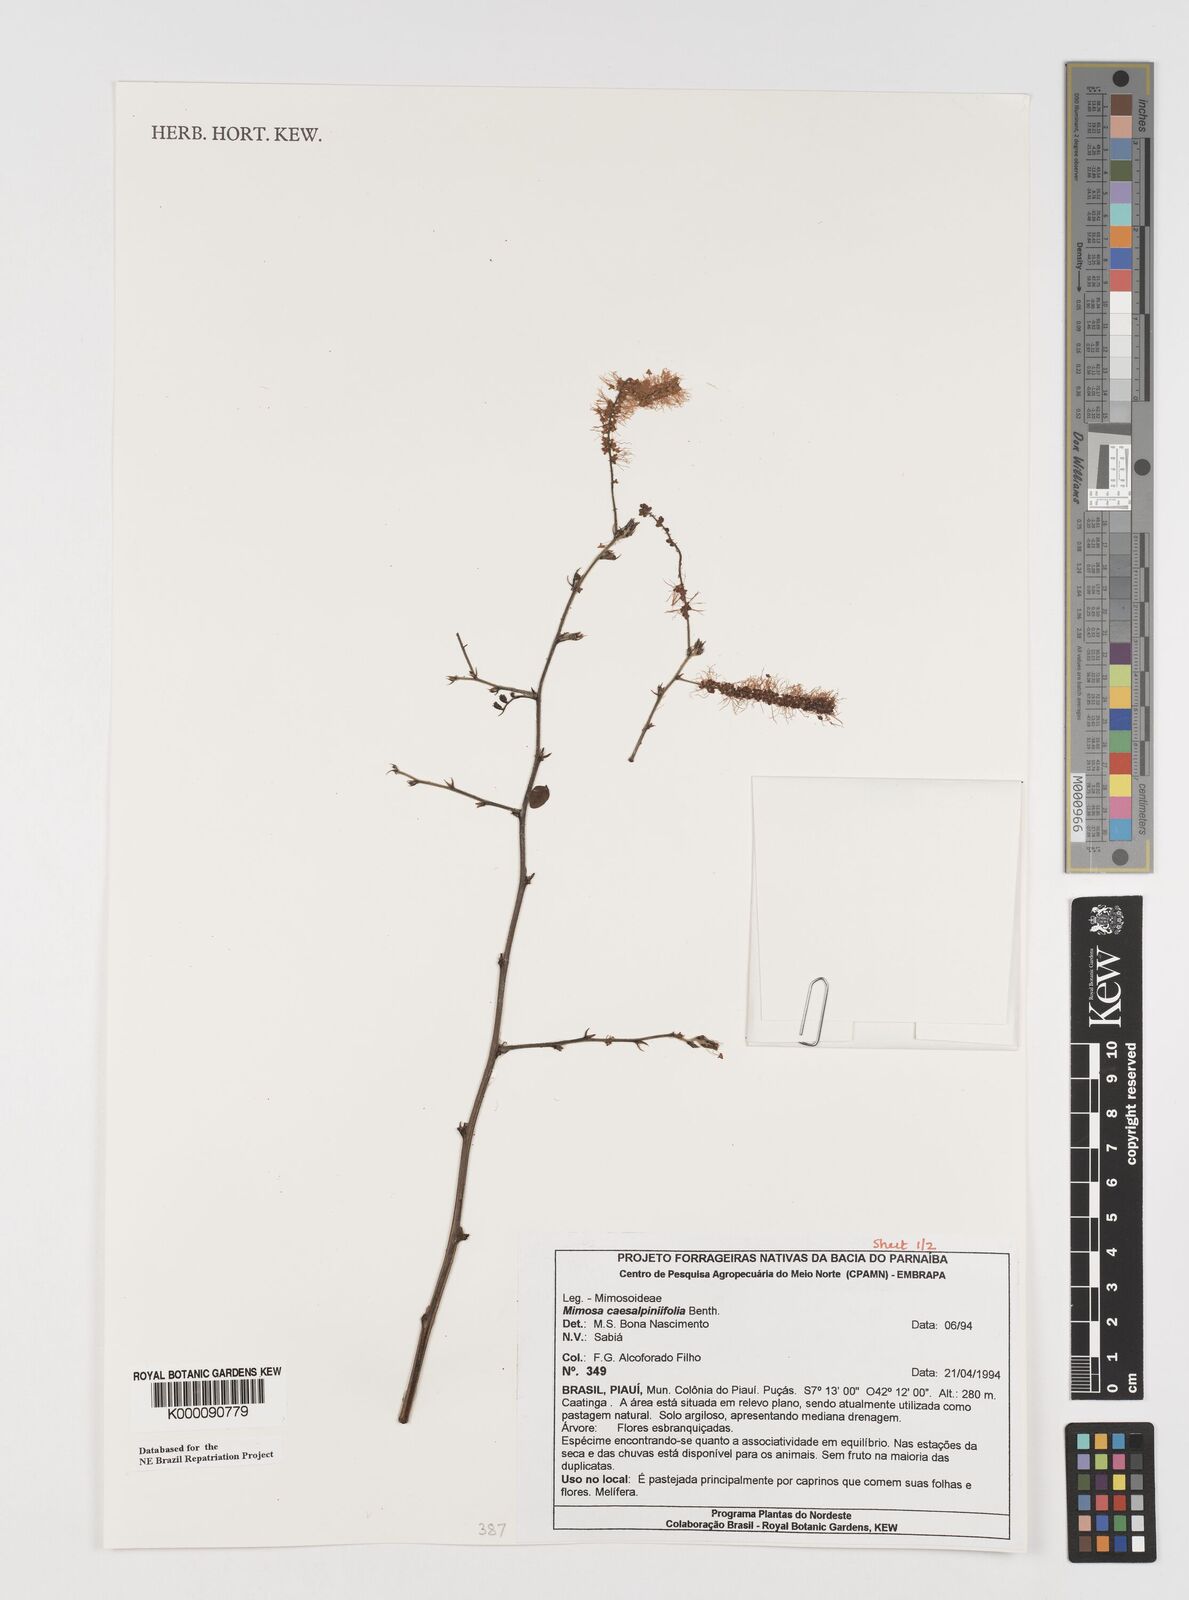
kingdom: Plantae
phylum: Tracheophyta
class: Magnoliopsida
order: Fabales
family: Fabaceae
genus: Mimosa
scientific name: Mimosa caesalpiniifolia
